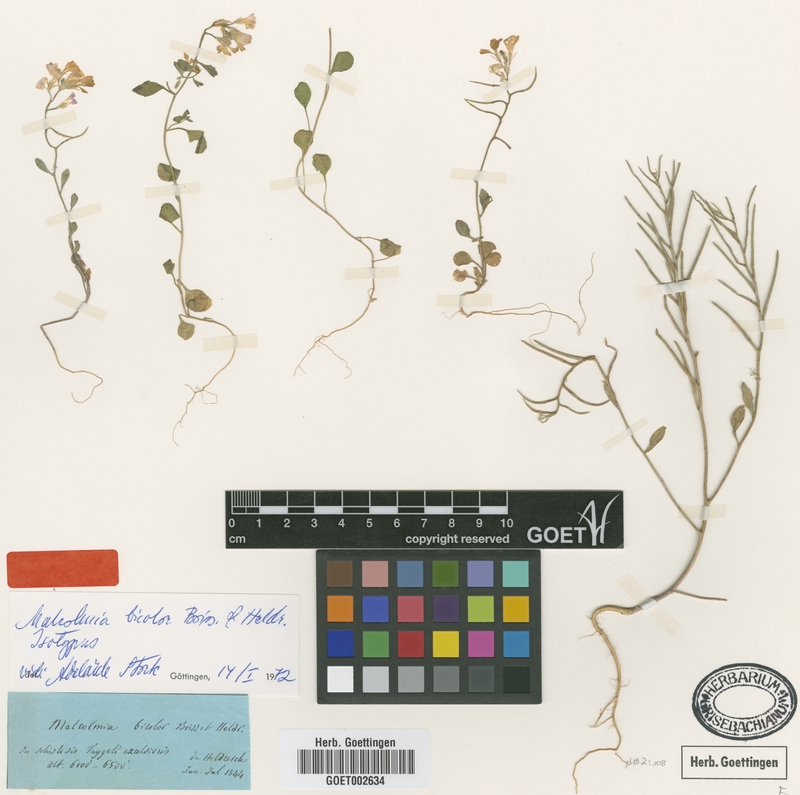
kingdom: Plantae
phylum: Tracheophyta
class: Magnoliopsida
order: Brassicales
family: Brassicaceae
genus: Malcolmia
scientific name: Malcolmia graeca
